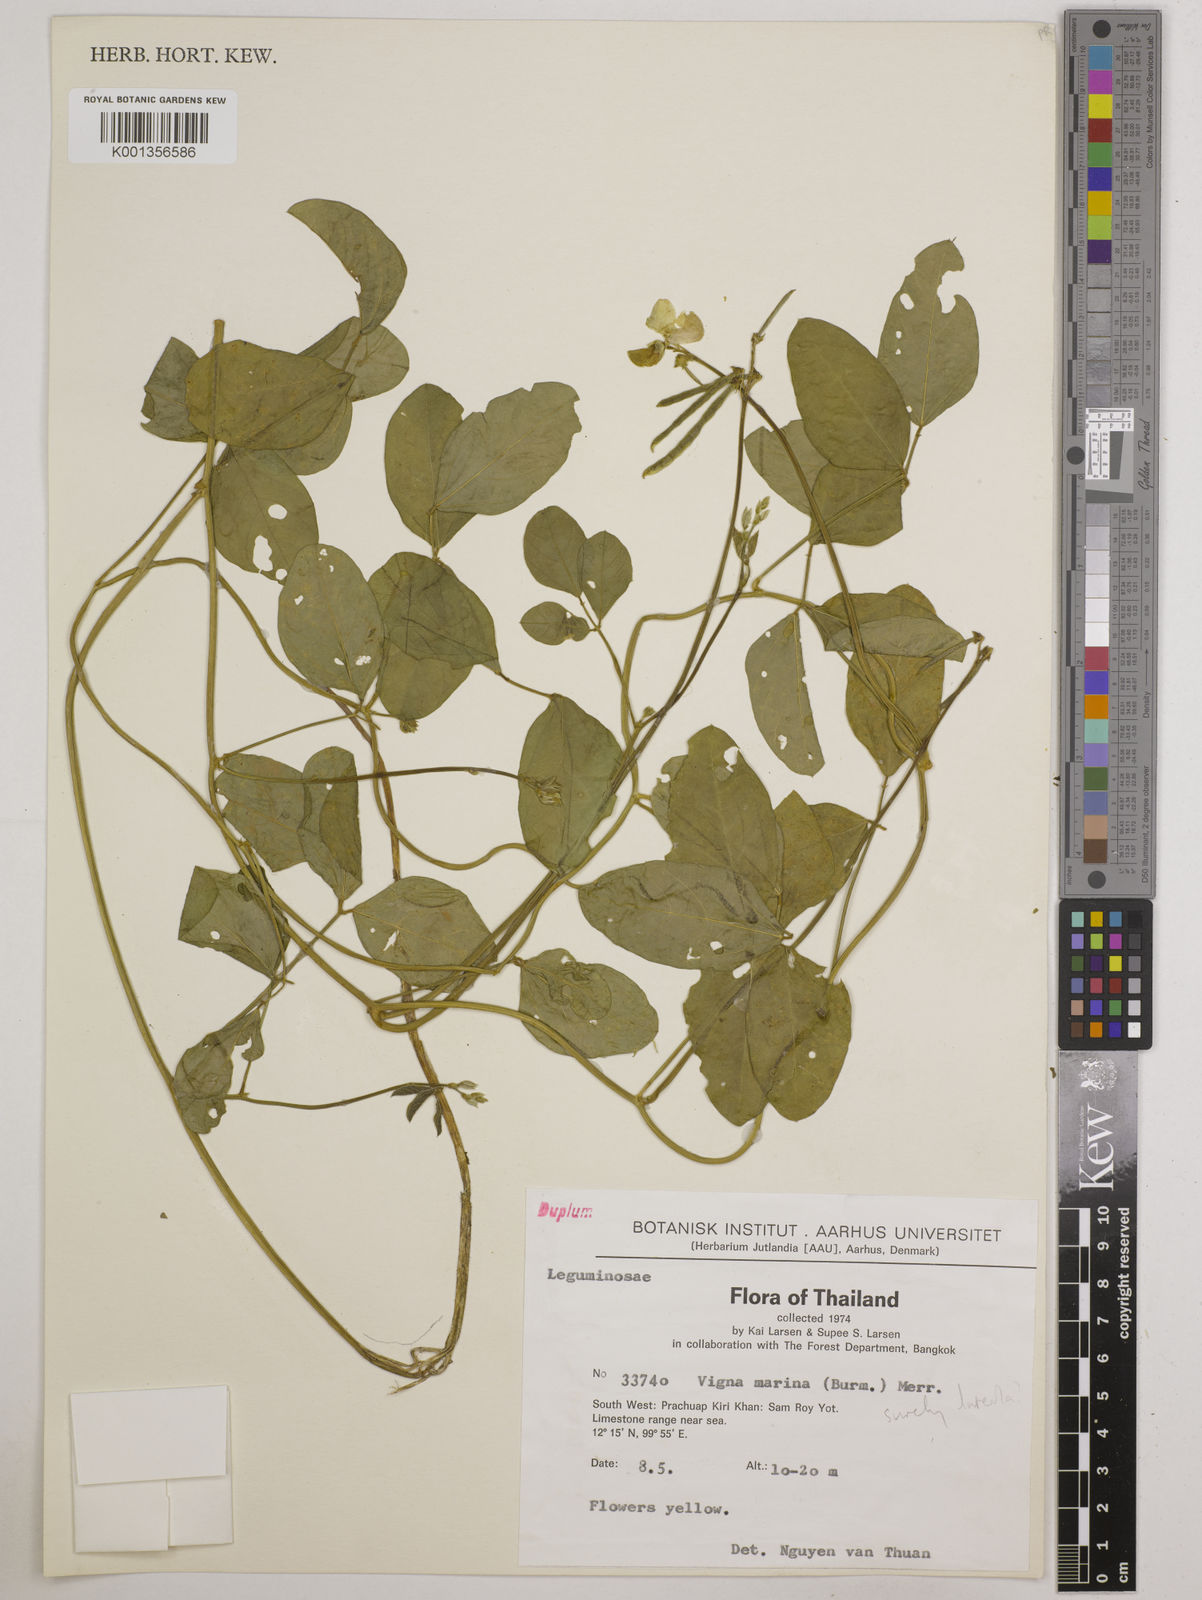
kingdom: Plantae
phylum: Tracheophyta
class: Magnoliopsida
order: Fabales
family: Fabaceae
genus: Vigna
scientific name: Vigna luteola
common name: Hairypod cowpea
